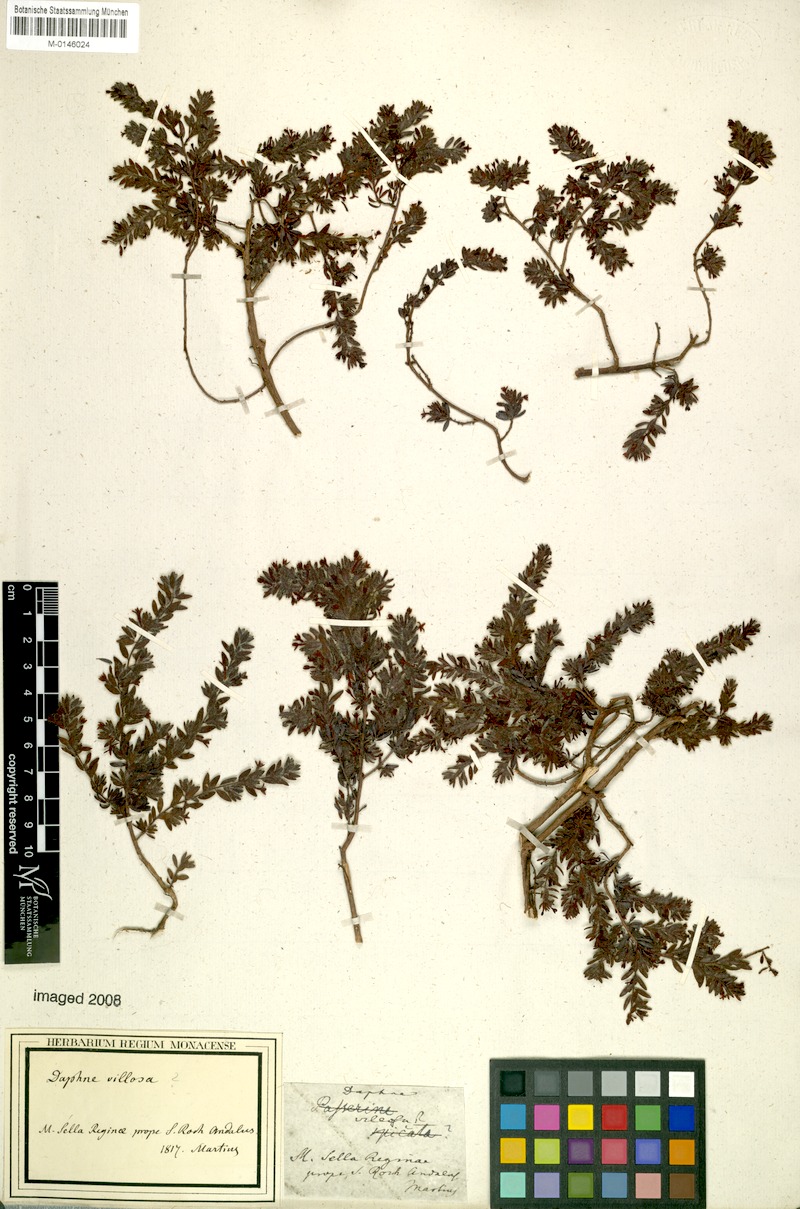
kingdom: Plantae
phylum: Tracheophyta
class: Magnoliopsida
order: Malvales
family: Thymelaeaceae
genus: Thymelaea
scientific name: Thymelaea villosa
